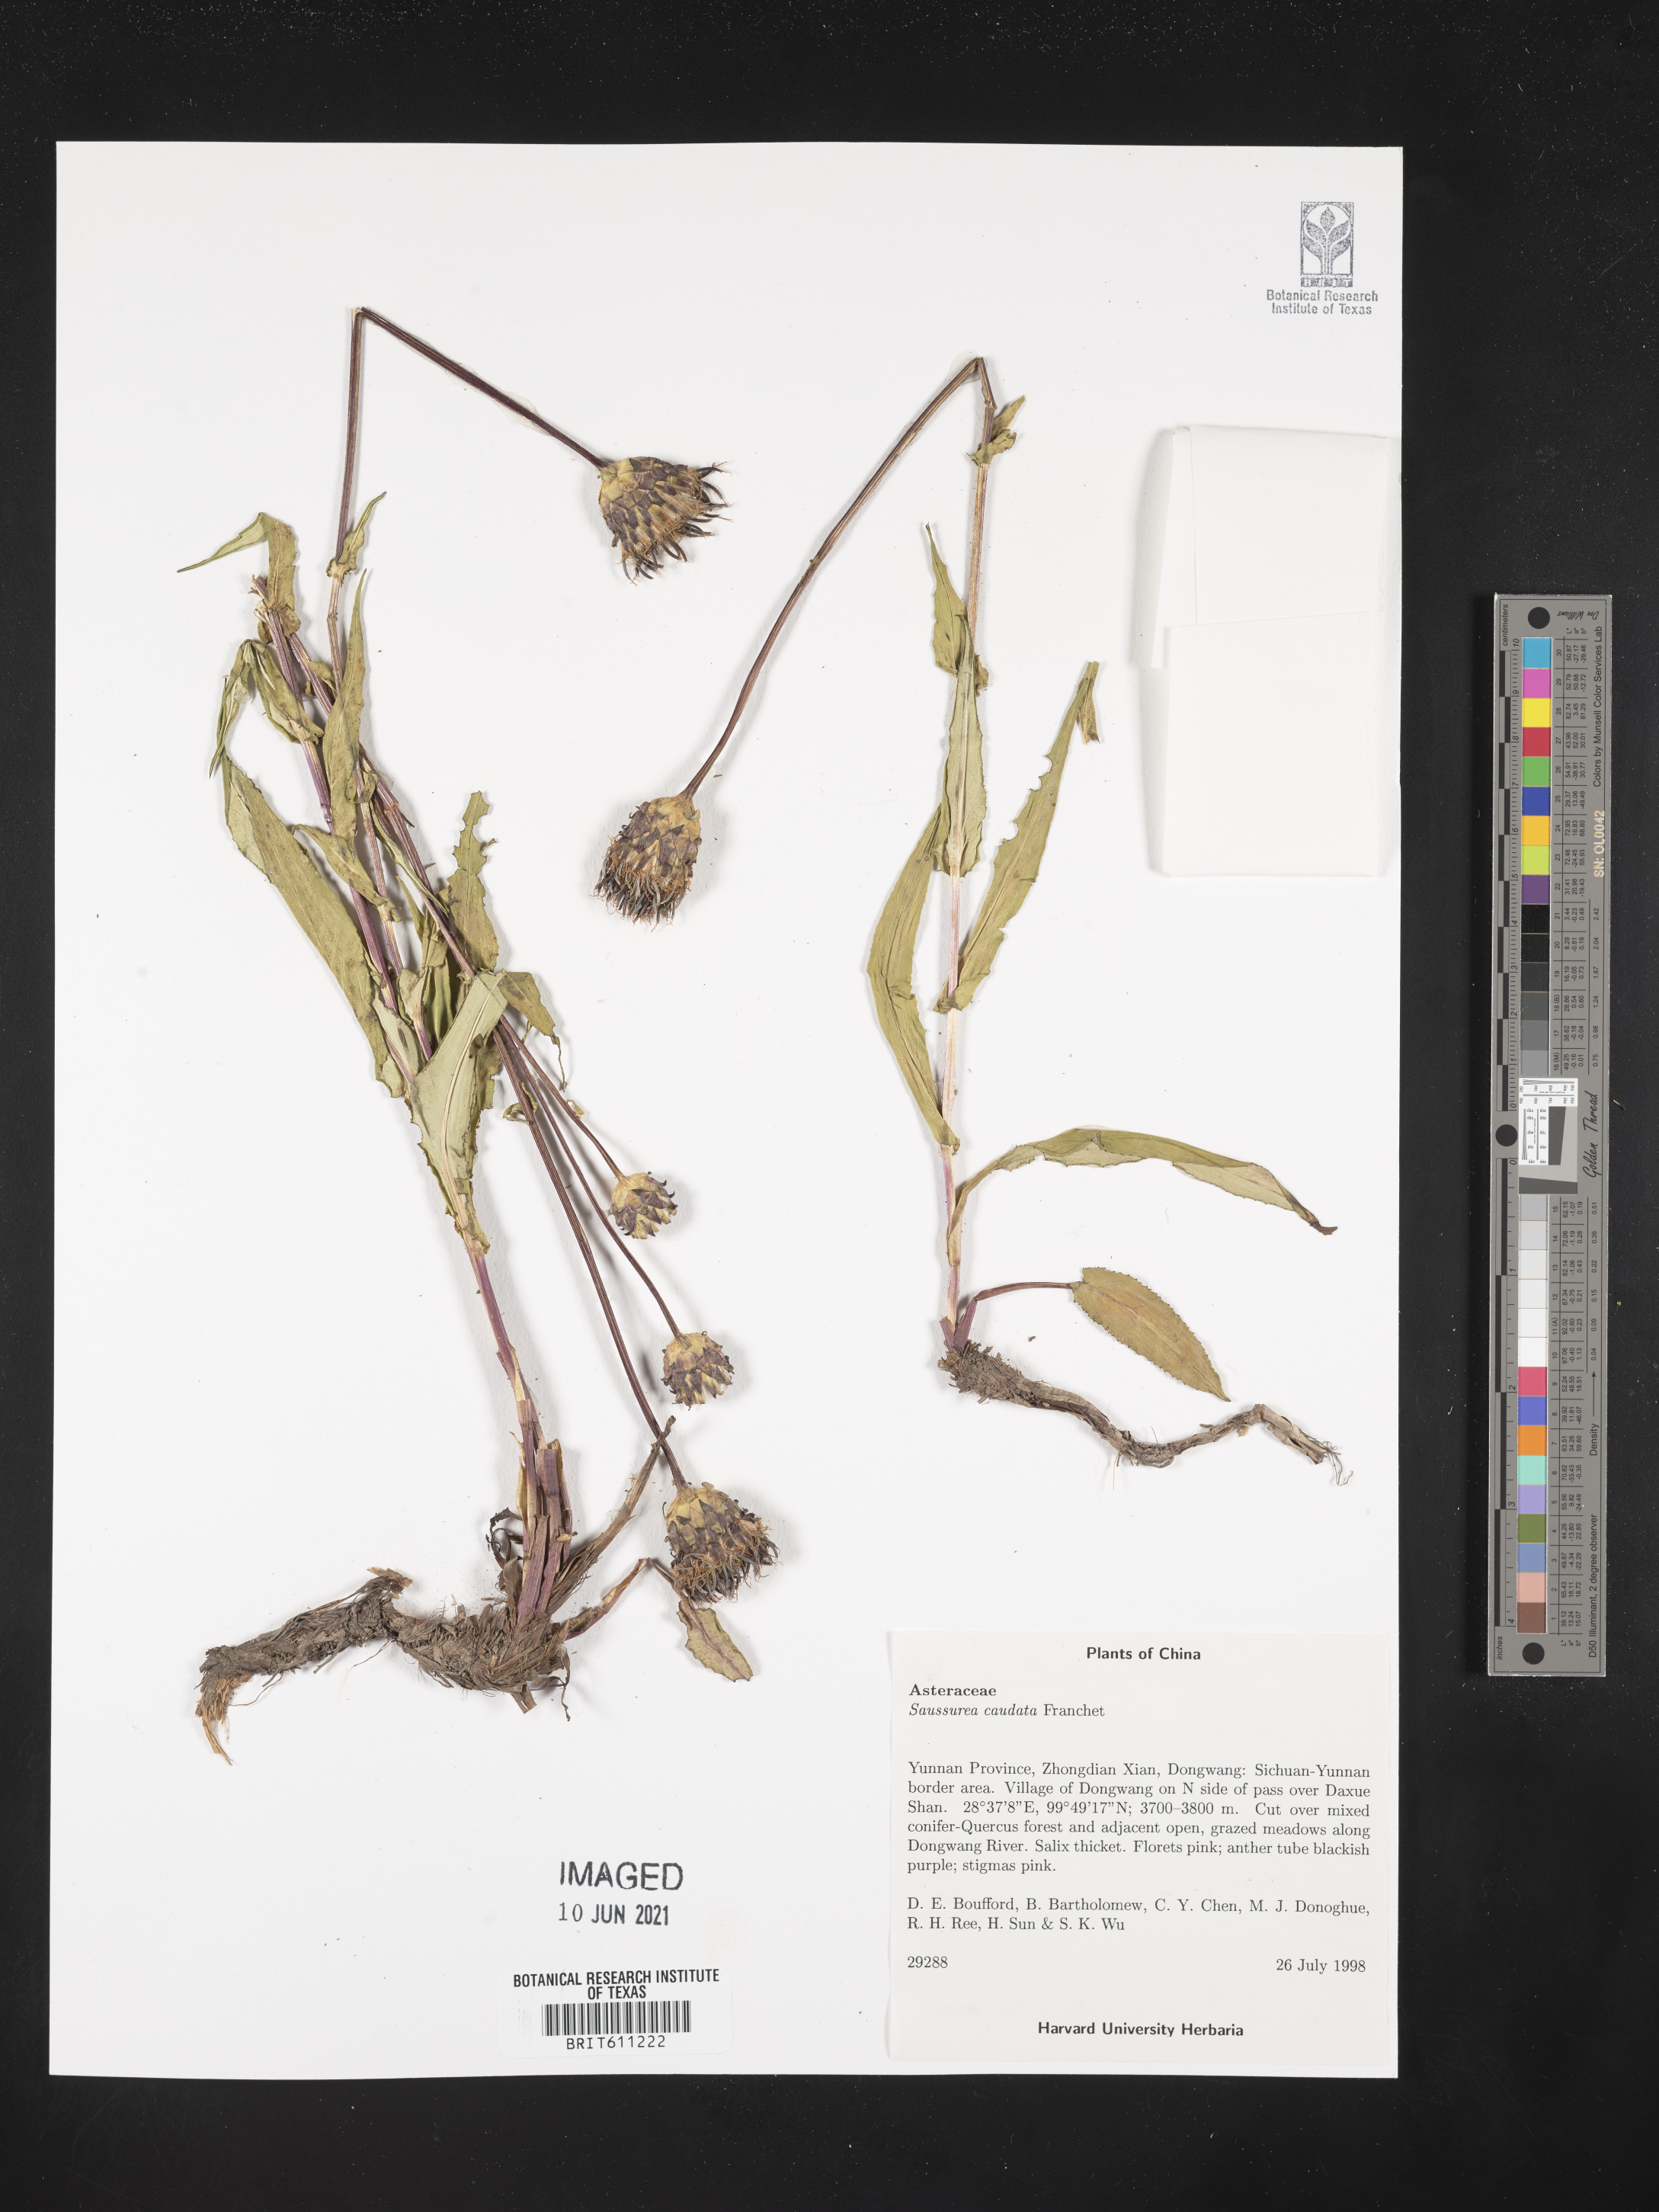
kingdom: Plantae
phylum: Tracheophyta
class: Magnoliopsida
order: Asterales
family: Asteraceae
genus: Saussurea
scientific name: Saussurea caudata
